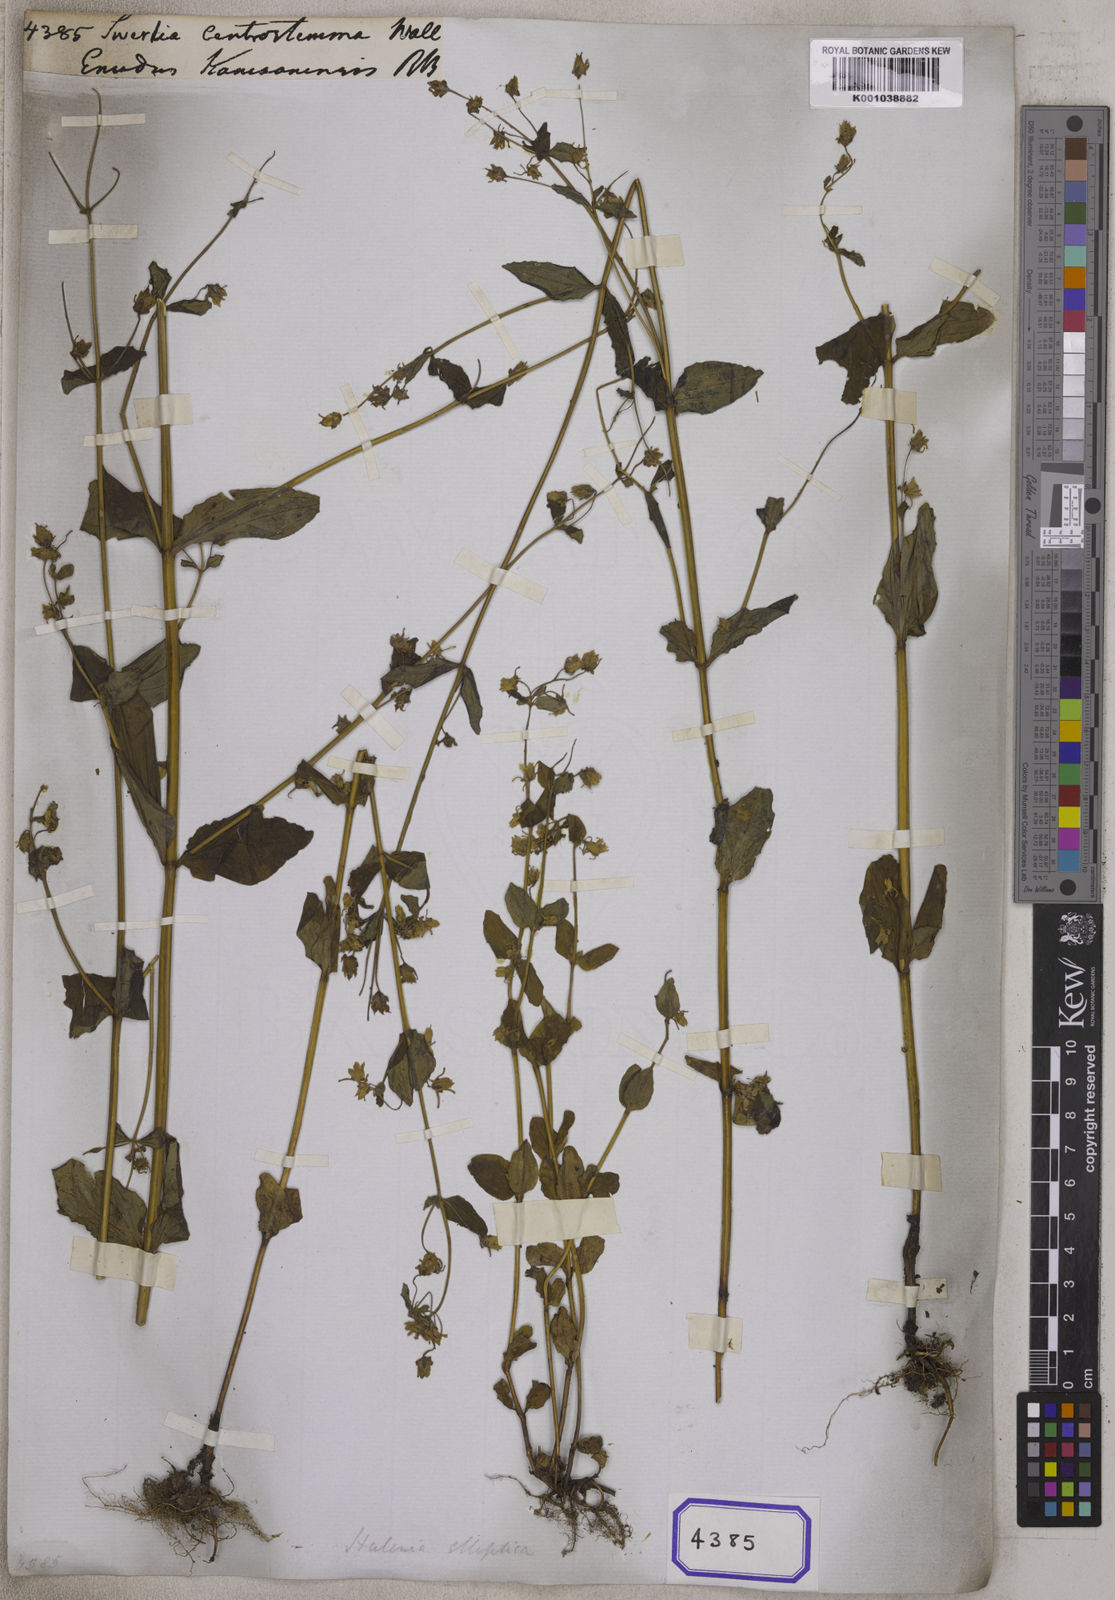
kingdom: Plantae
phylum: Tracheophyta
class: Magnoliopsida
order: Gentianales
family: Gentianaceae
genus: Halenia
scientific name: Halenia elliptica
